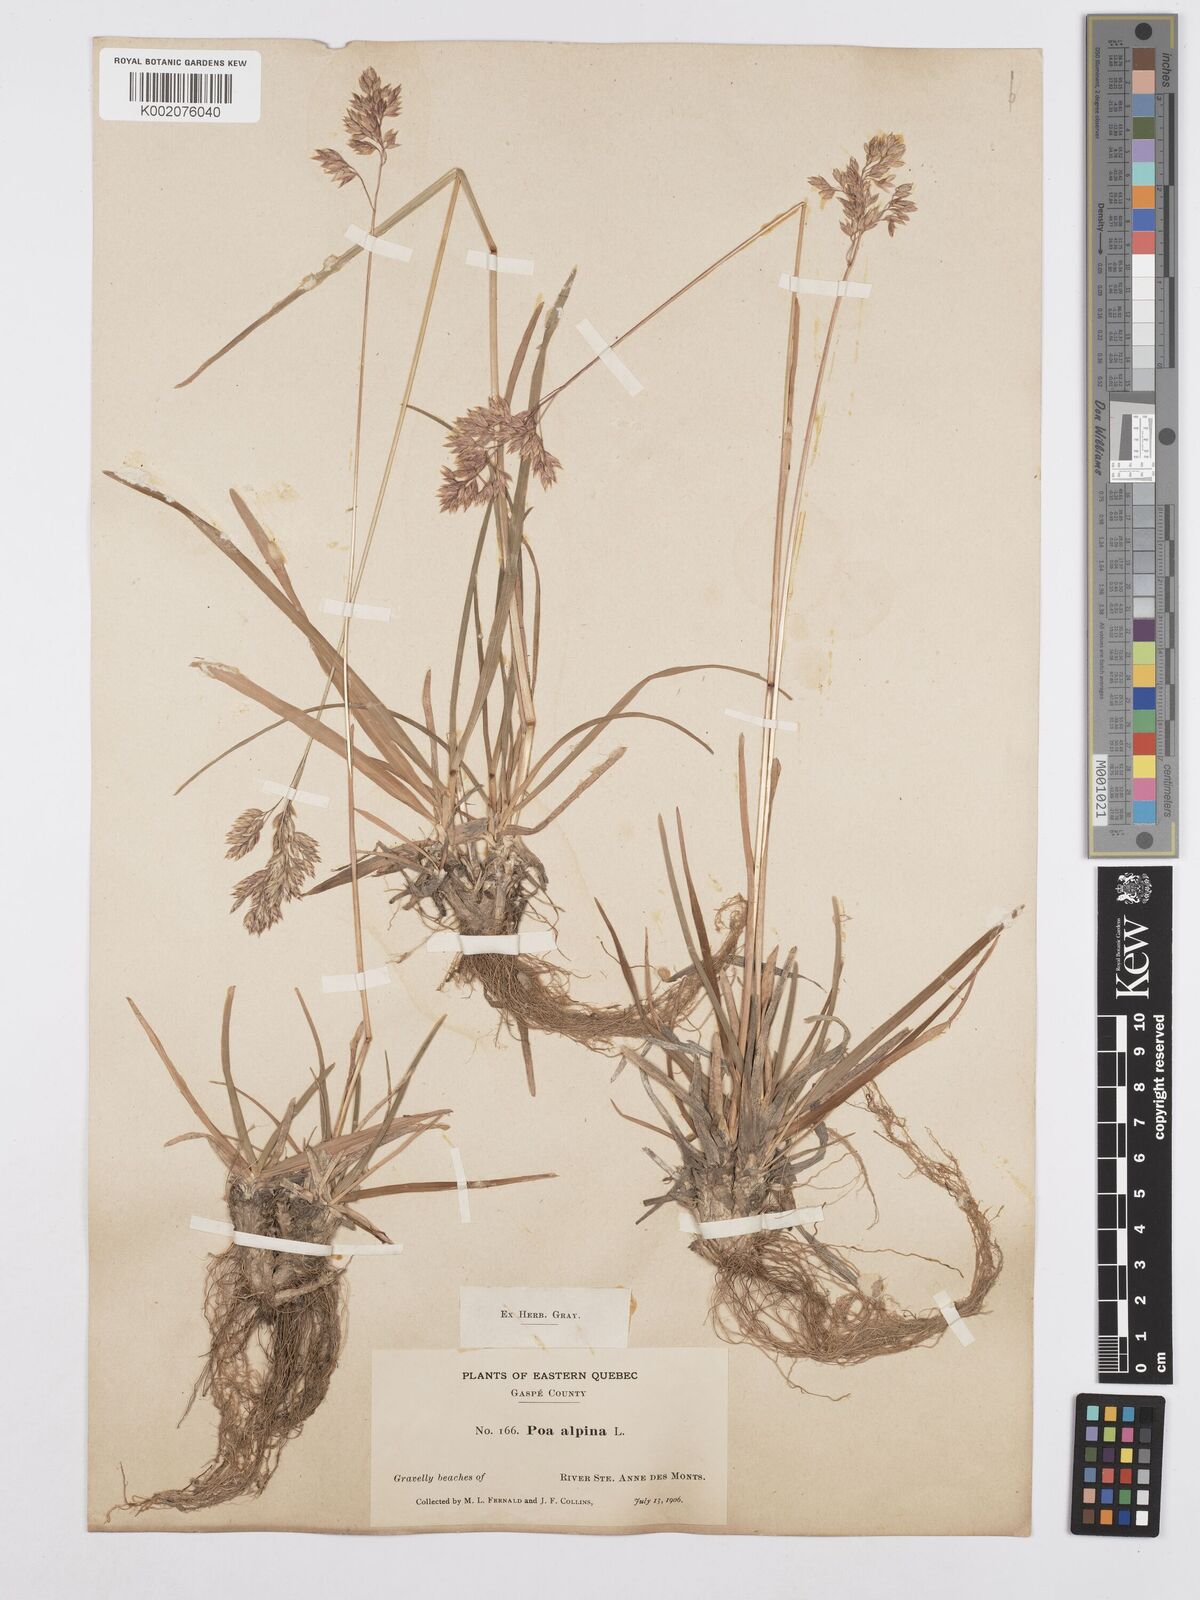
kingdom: Plantae
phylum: Tracheophyta
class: Liliopsida
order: Poales
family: Poaceae
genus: Poa
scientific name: Poa alpina
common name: Alpine bluegrass
